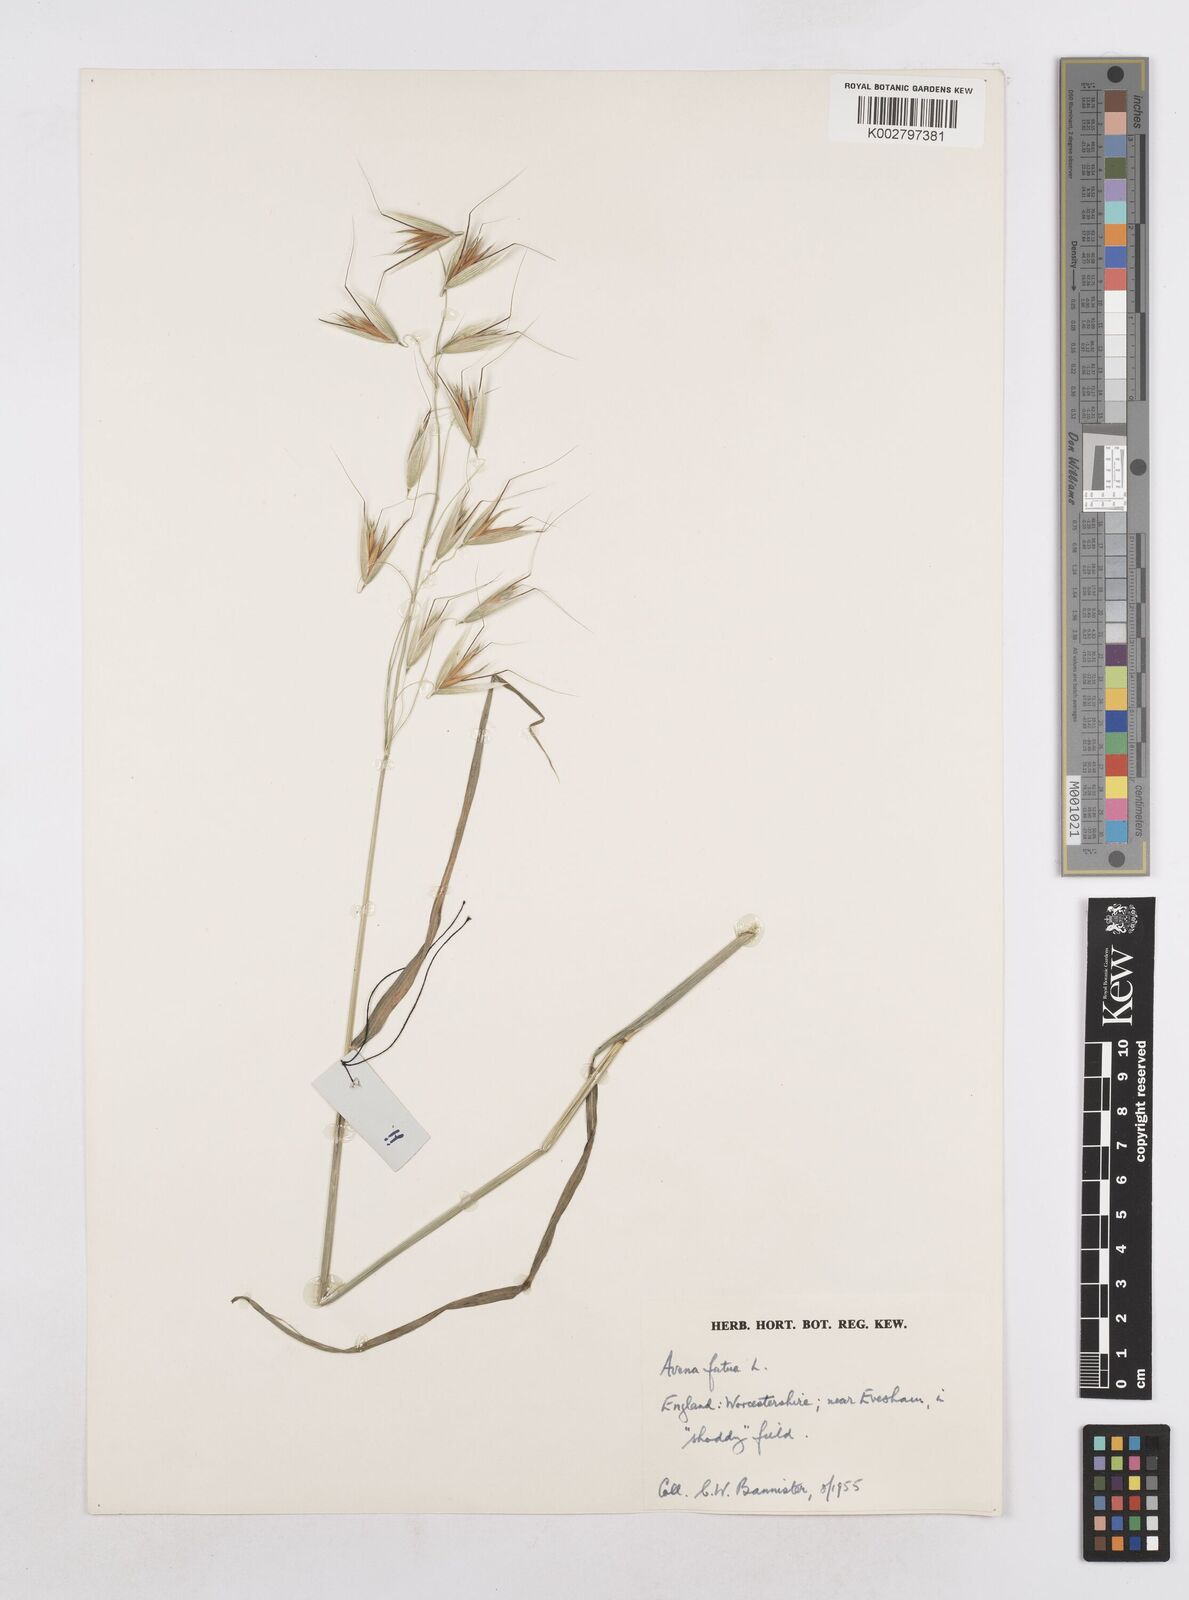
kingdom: Plantae
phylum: Tracheophyta
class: Liliopsida
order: Poales
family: Poaceae
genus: Avena
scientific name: Avena fatua
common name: Wild oat
